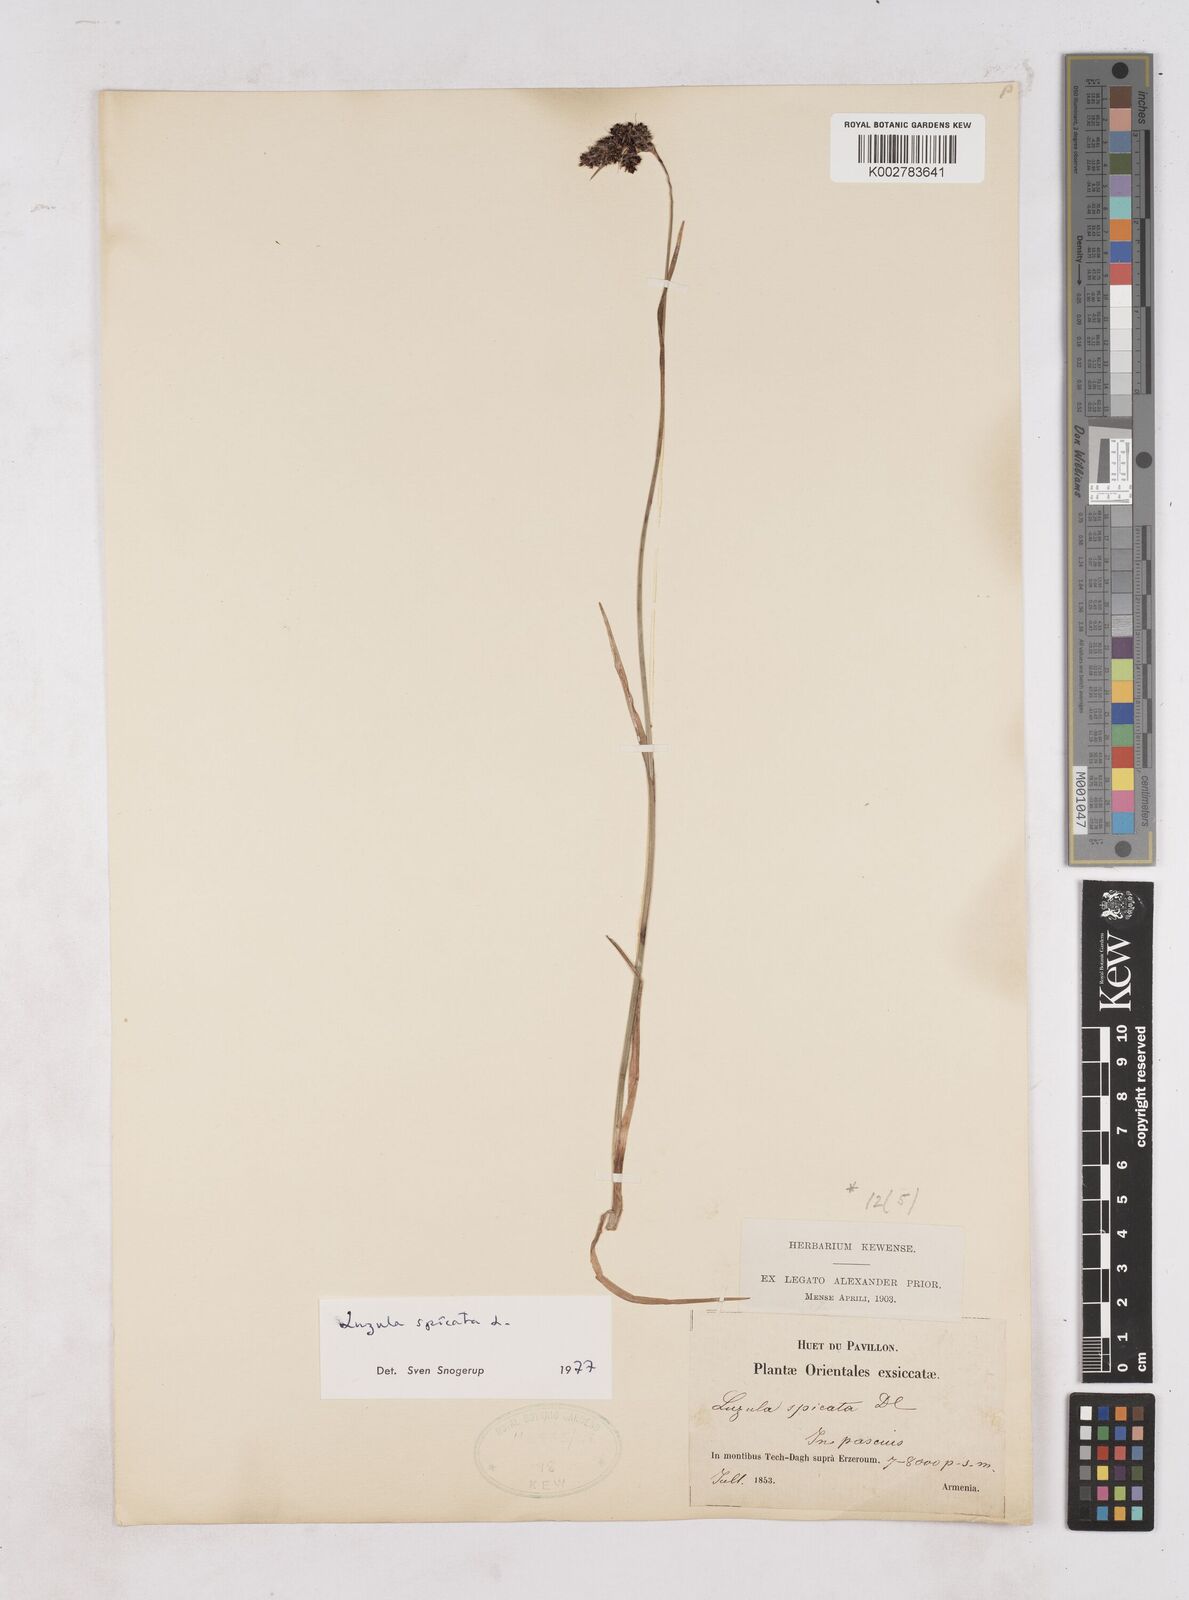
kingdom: Plantae
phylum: Tracheophyta
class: Liliopsida
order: Poales
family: Juncaceae
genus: Luzula
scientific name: Luzula spicata
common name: Spiked wood-rush
